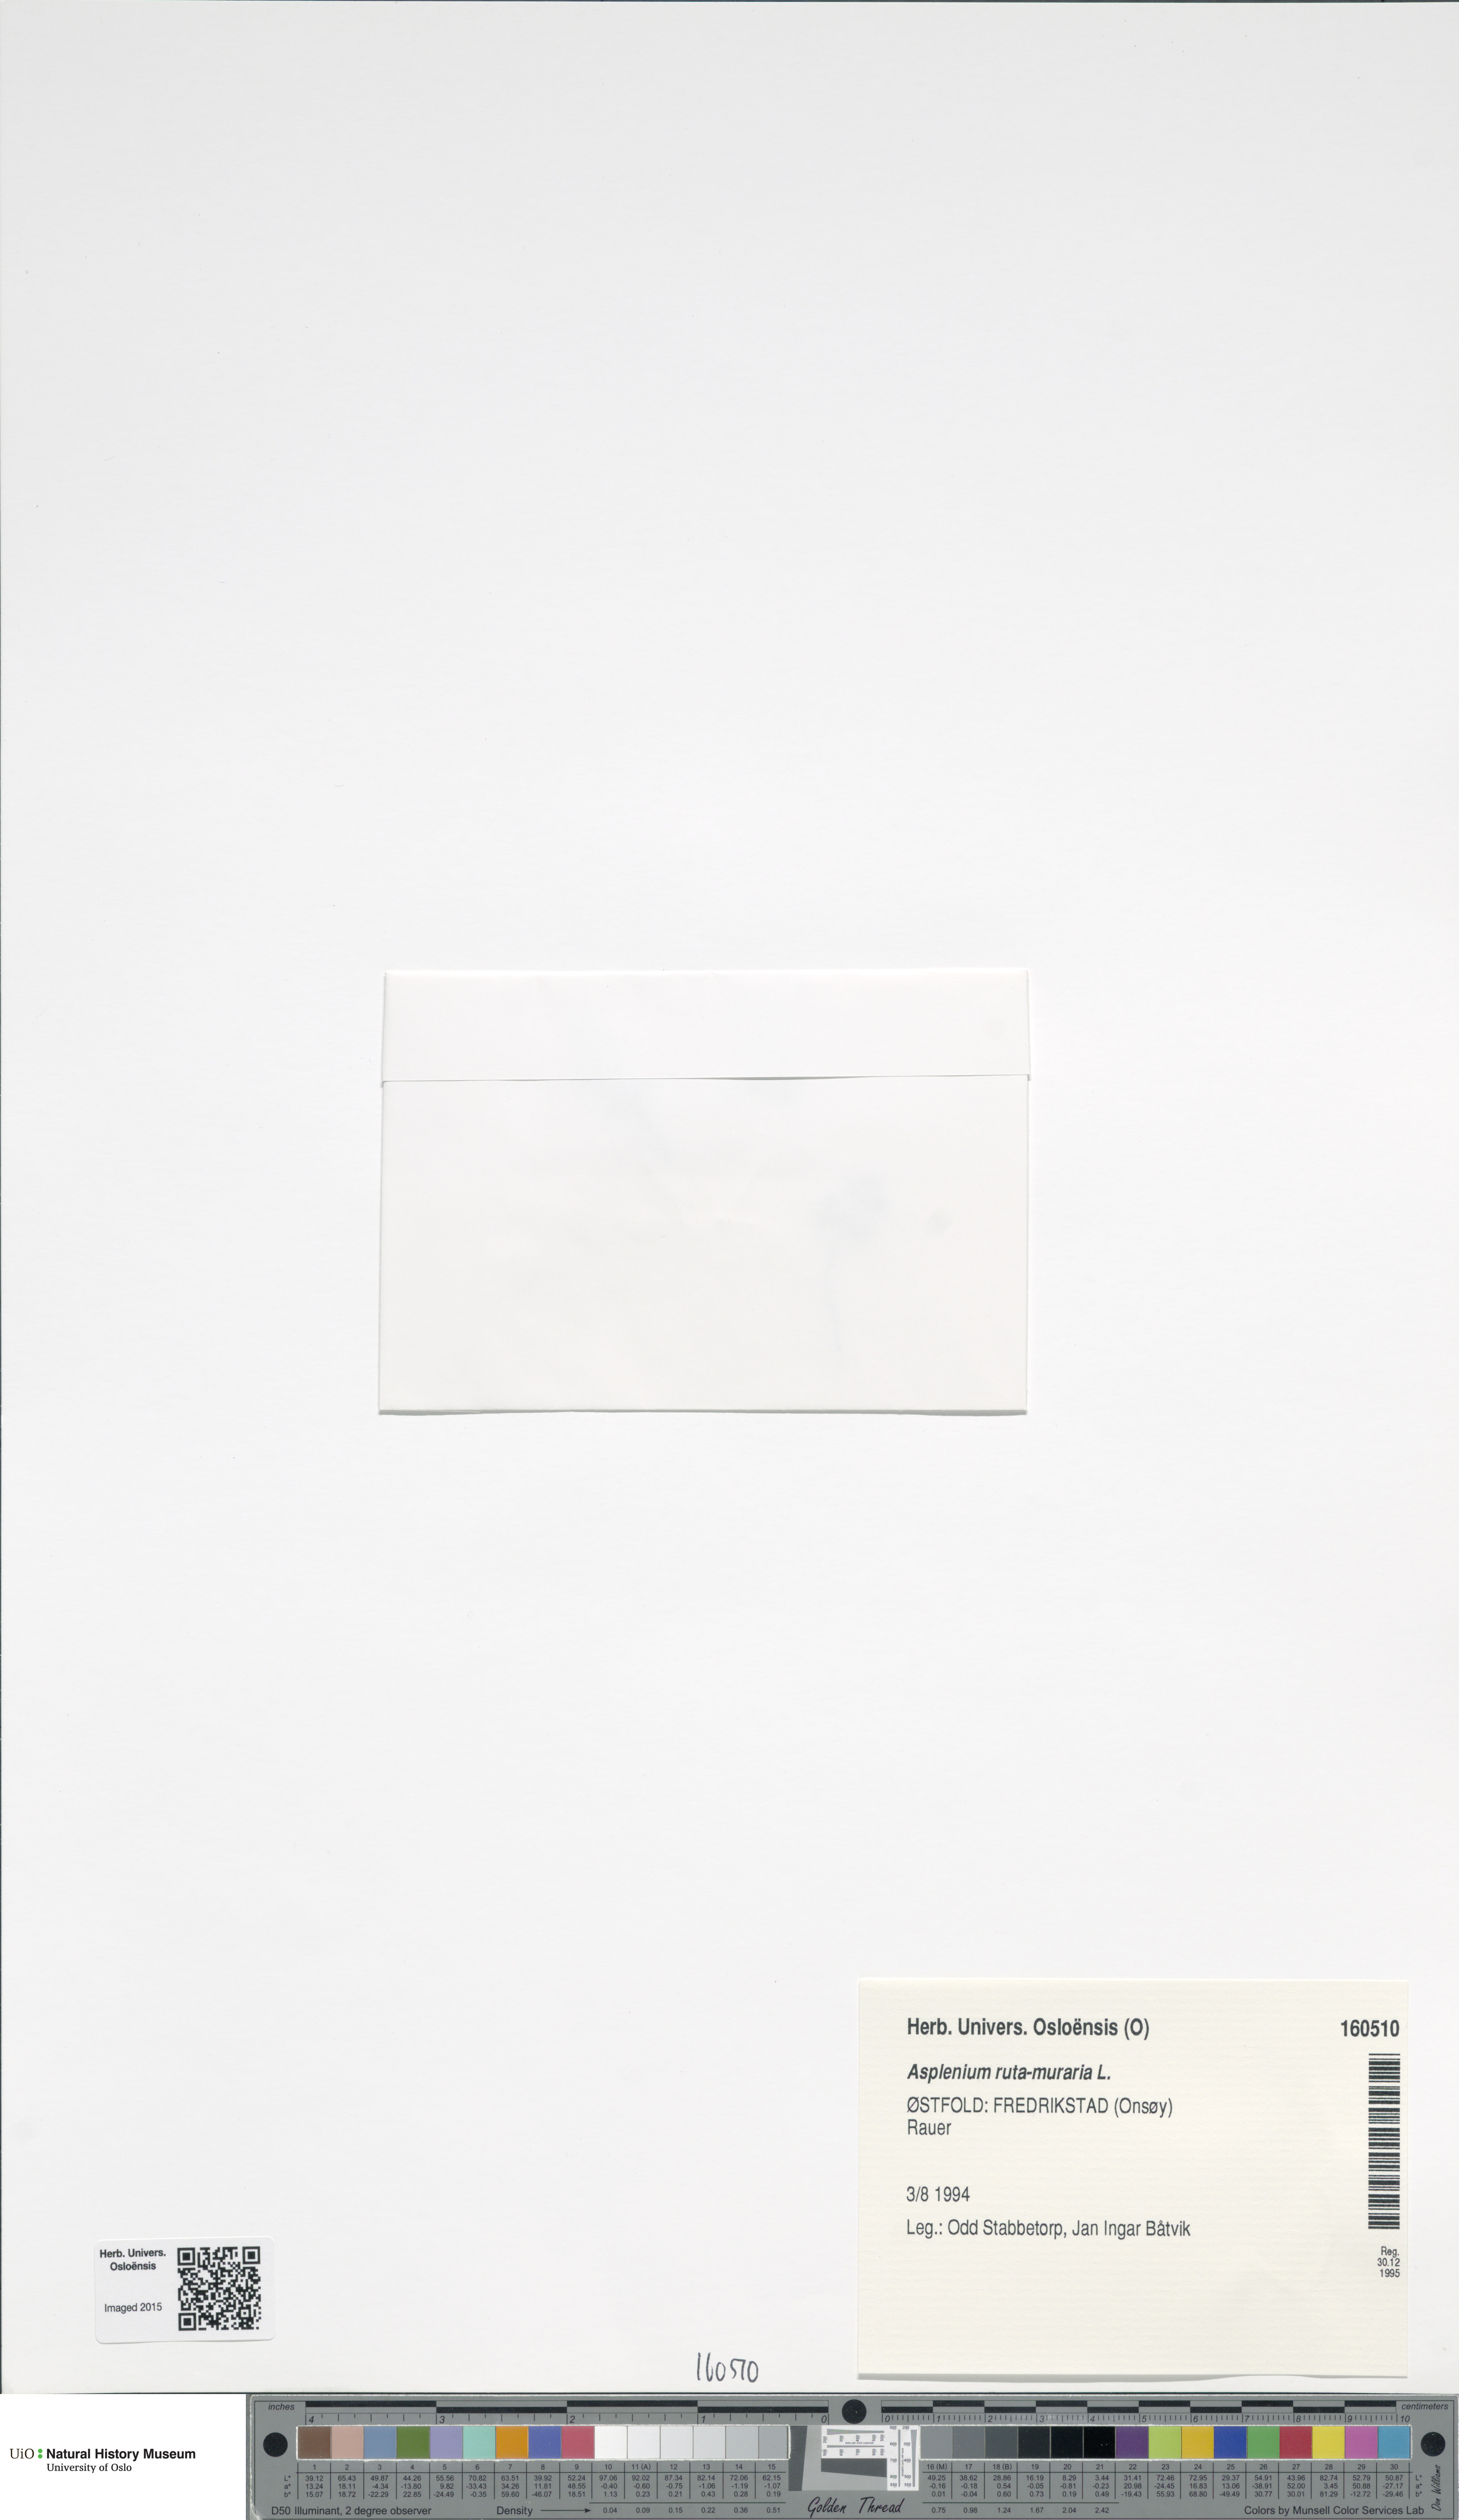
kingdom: Plantae
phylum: Tracheophyta
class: Polypodiopsida
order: Polypodiales
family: Aspleniaceae
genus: Asplenium
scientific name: Asplenium ruta-muraria
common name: Wall-rue
